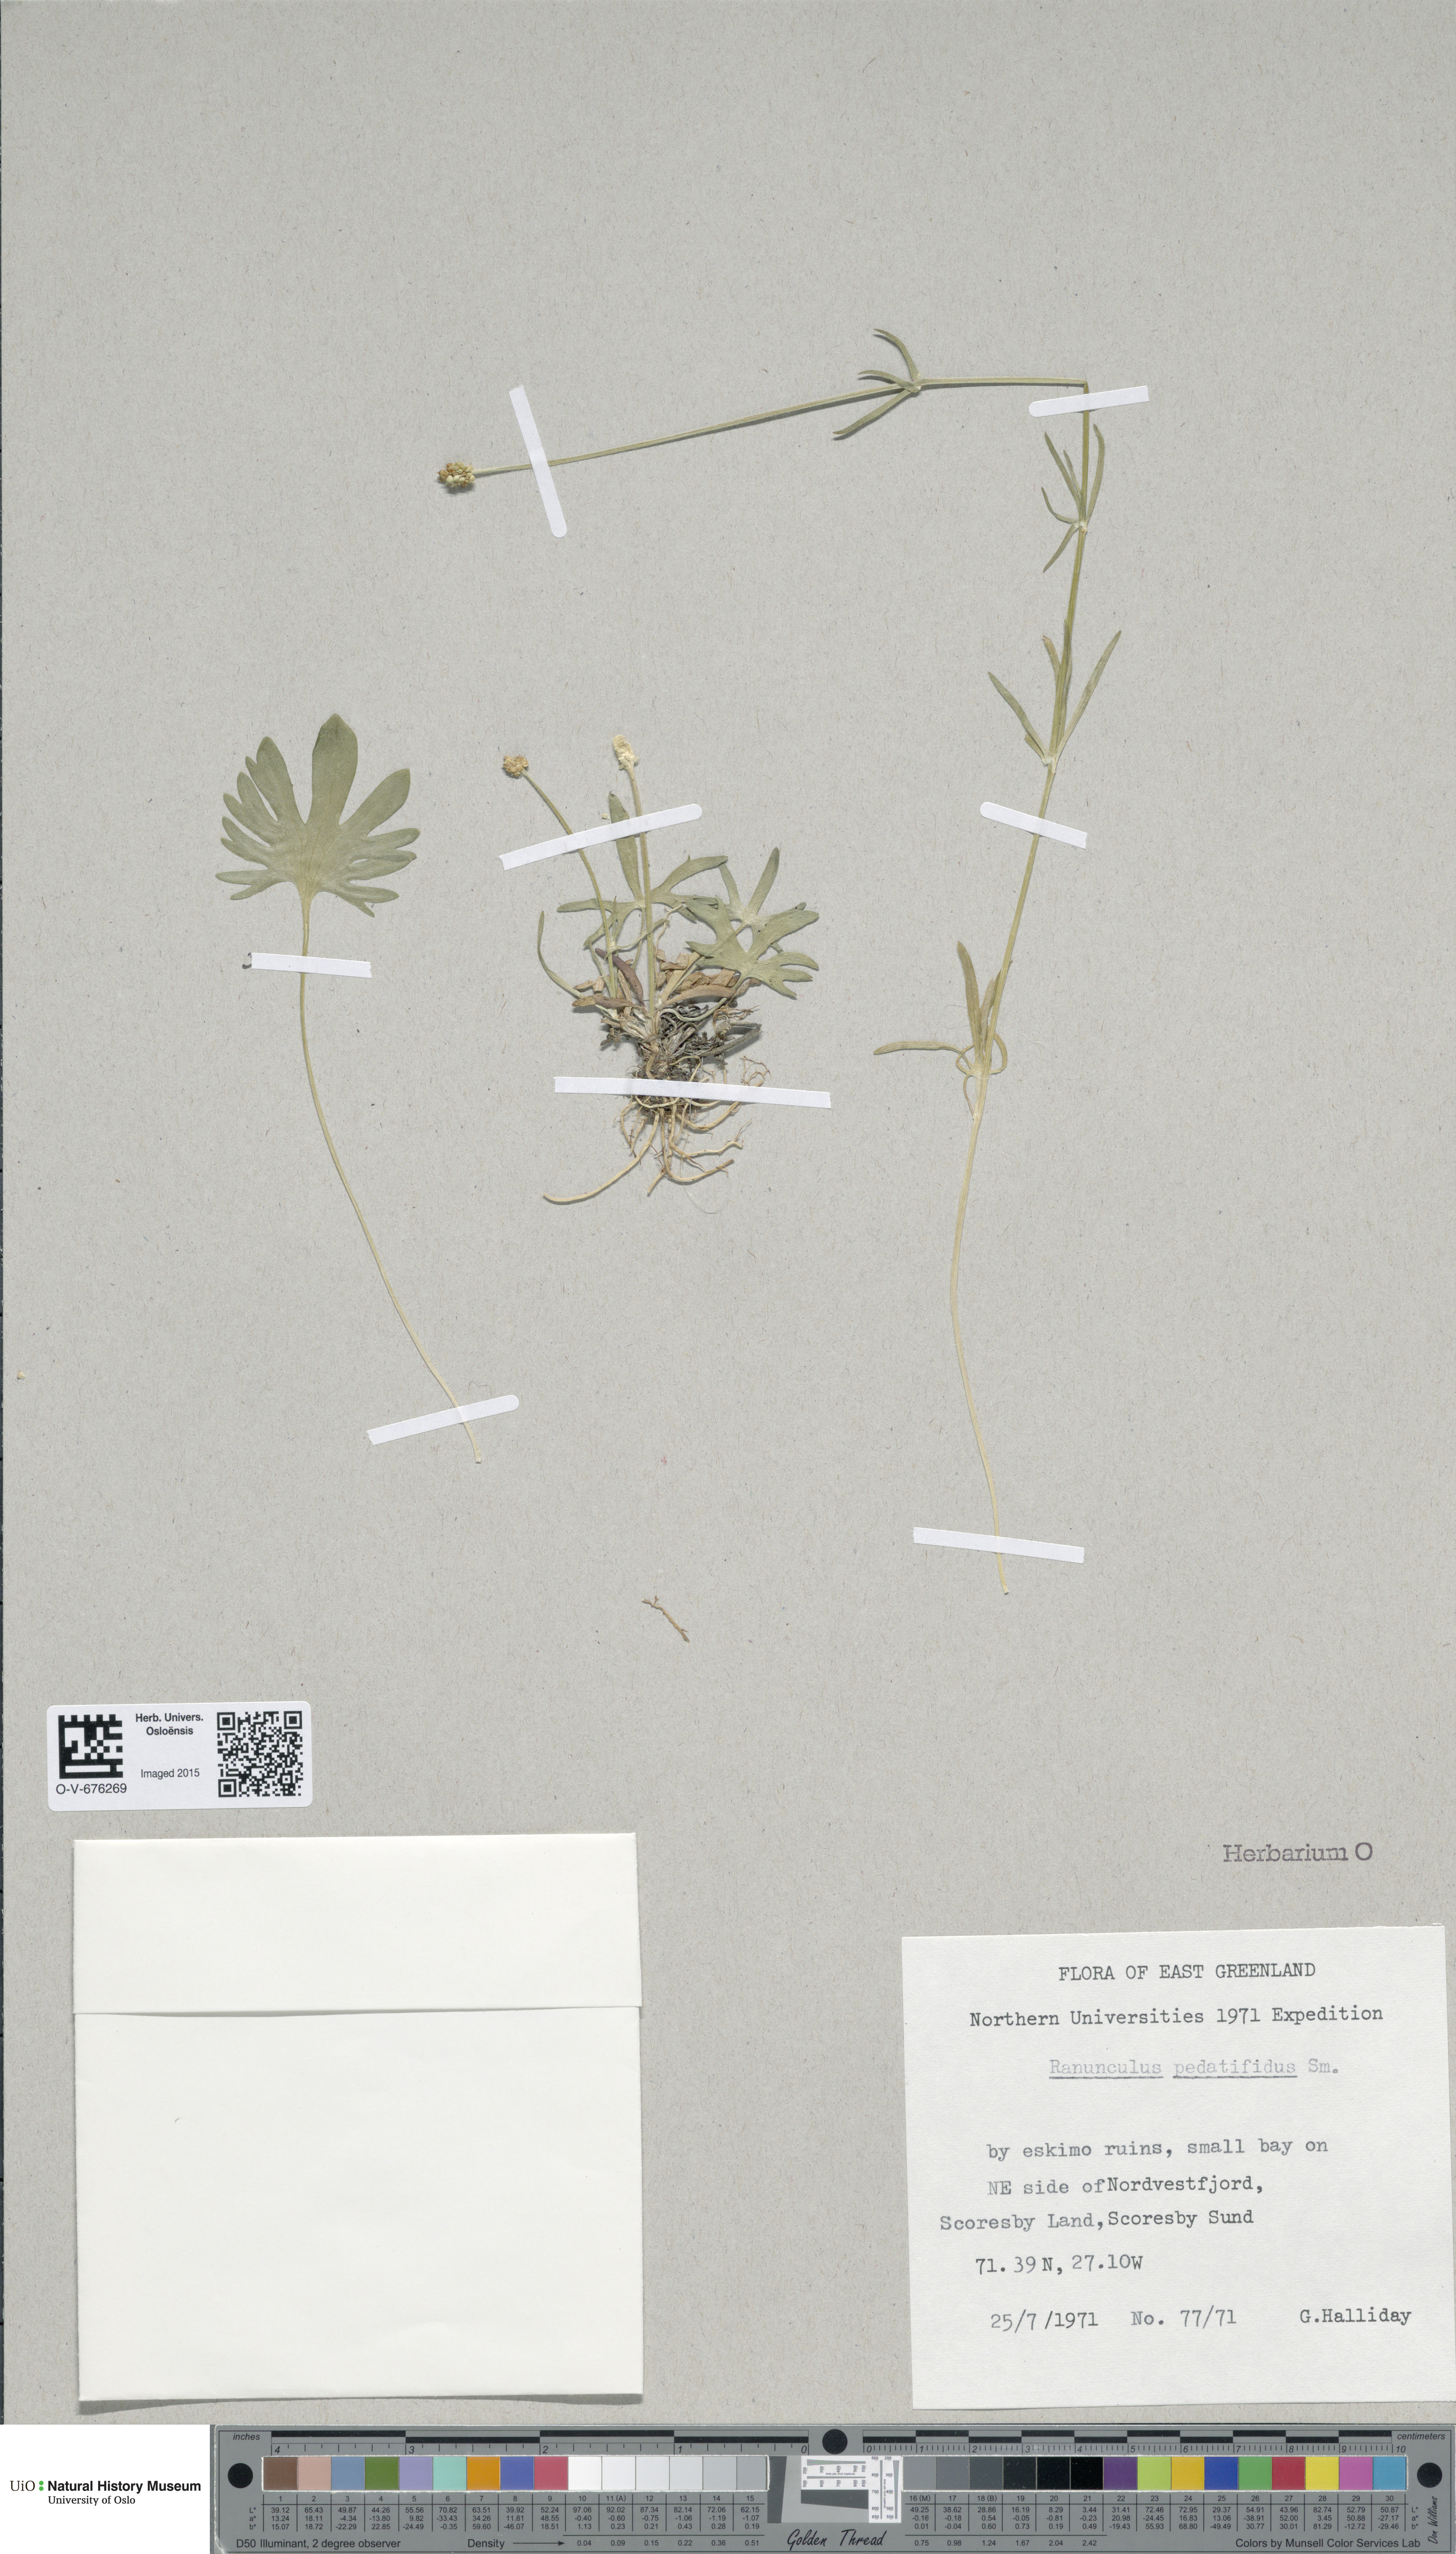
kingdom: Plantae
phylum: Tracheophyta
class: Magnoliopsida
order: Ranunculales
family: Ranunculaceae
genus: Ranunculus
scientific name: Ranunculus pedatifidus
